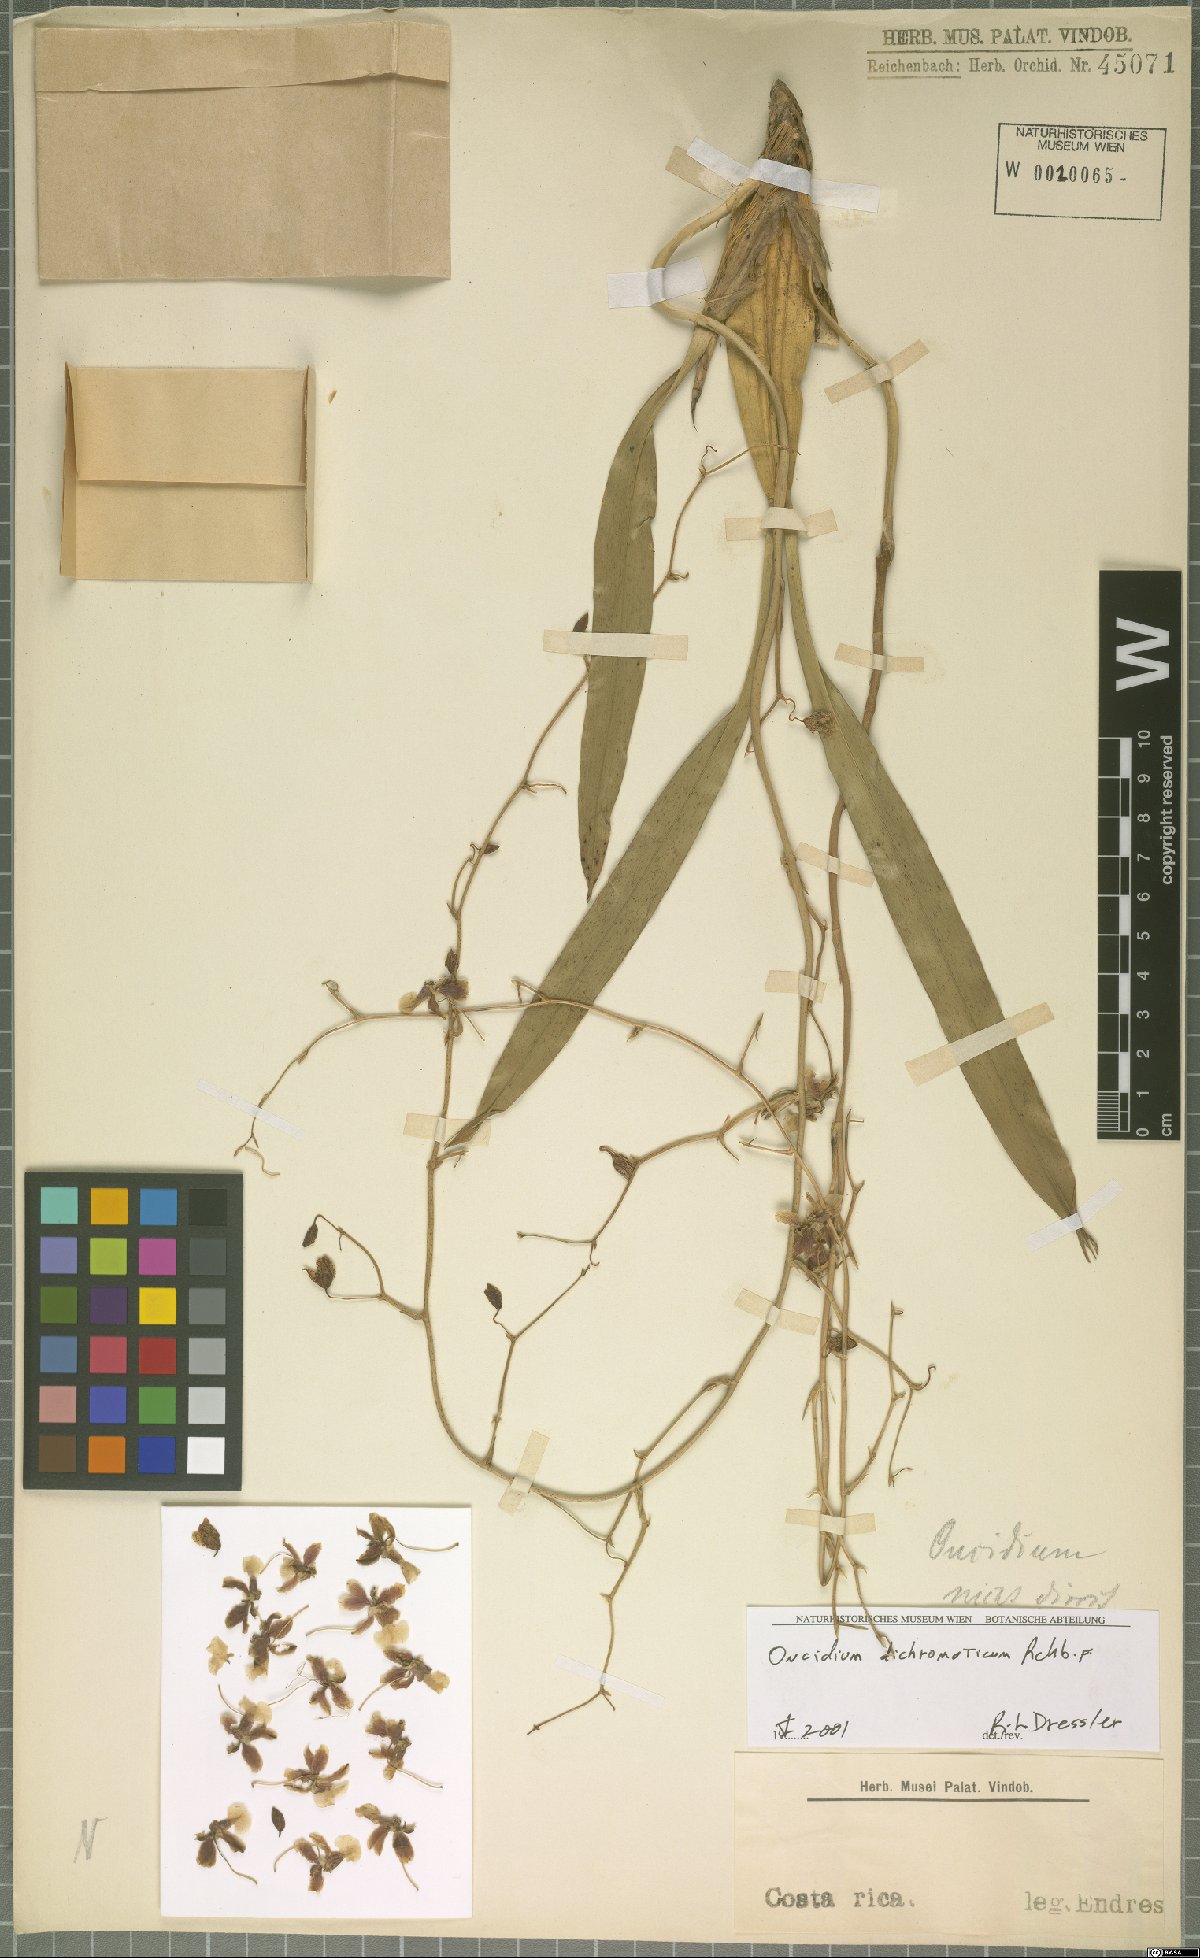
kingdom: Plantae
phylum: Tracheophyta
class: Liliopsida
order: Asparagales
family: Orchidaceae
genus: Oncidium
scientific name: Oncidium dichromaticum
